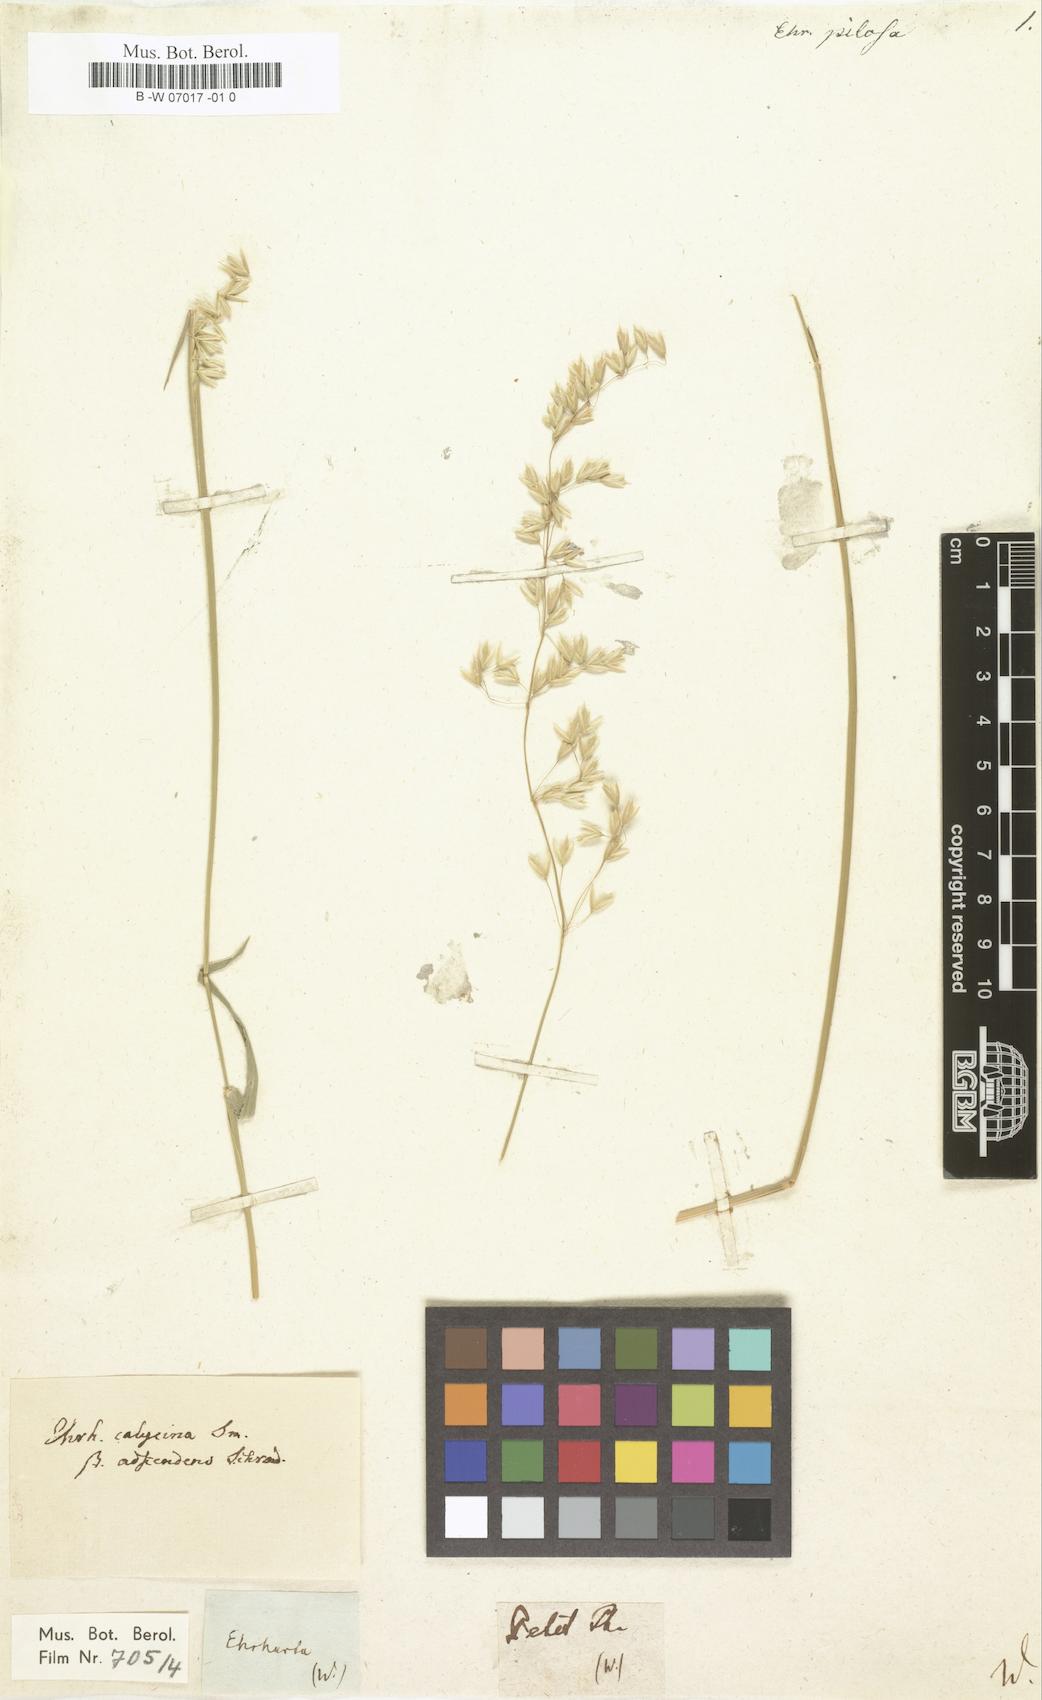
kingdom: Plantae
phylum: Tracheophyta
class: Liliopsida
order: Poales
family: Poaceae
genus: Ehrharta
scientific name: Ehrharta calycina
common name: Perennial veldtgrass
